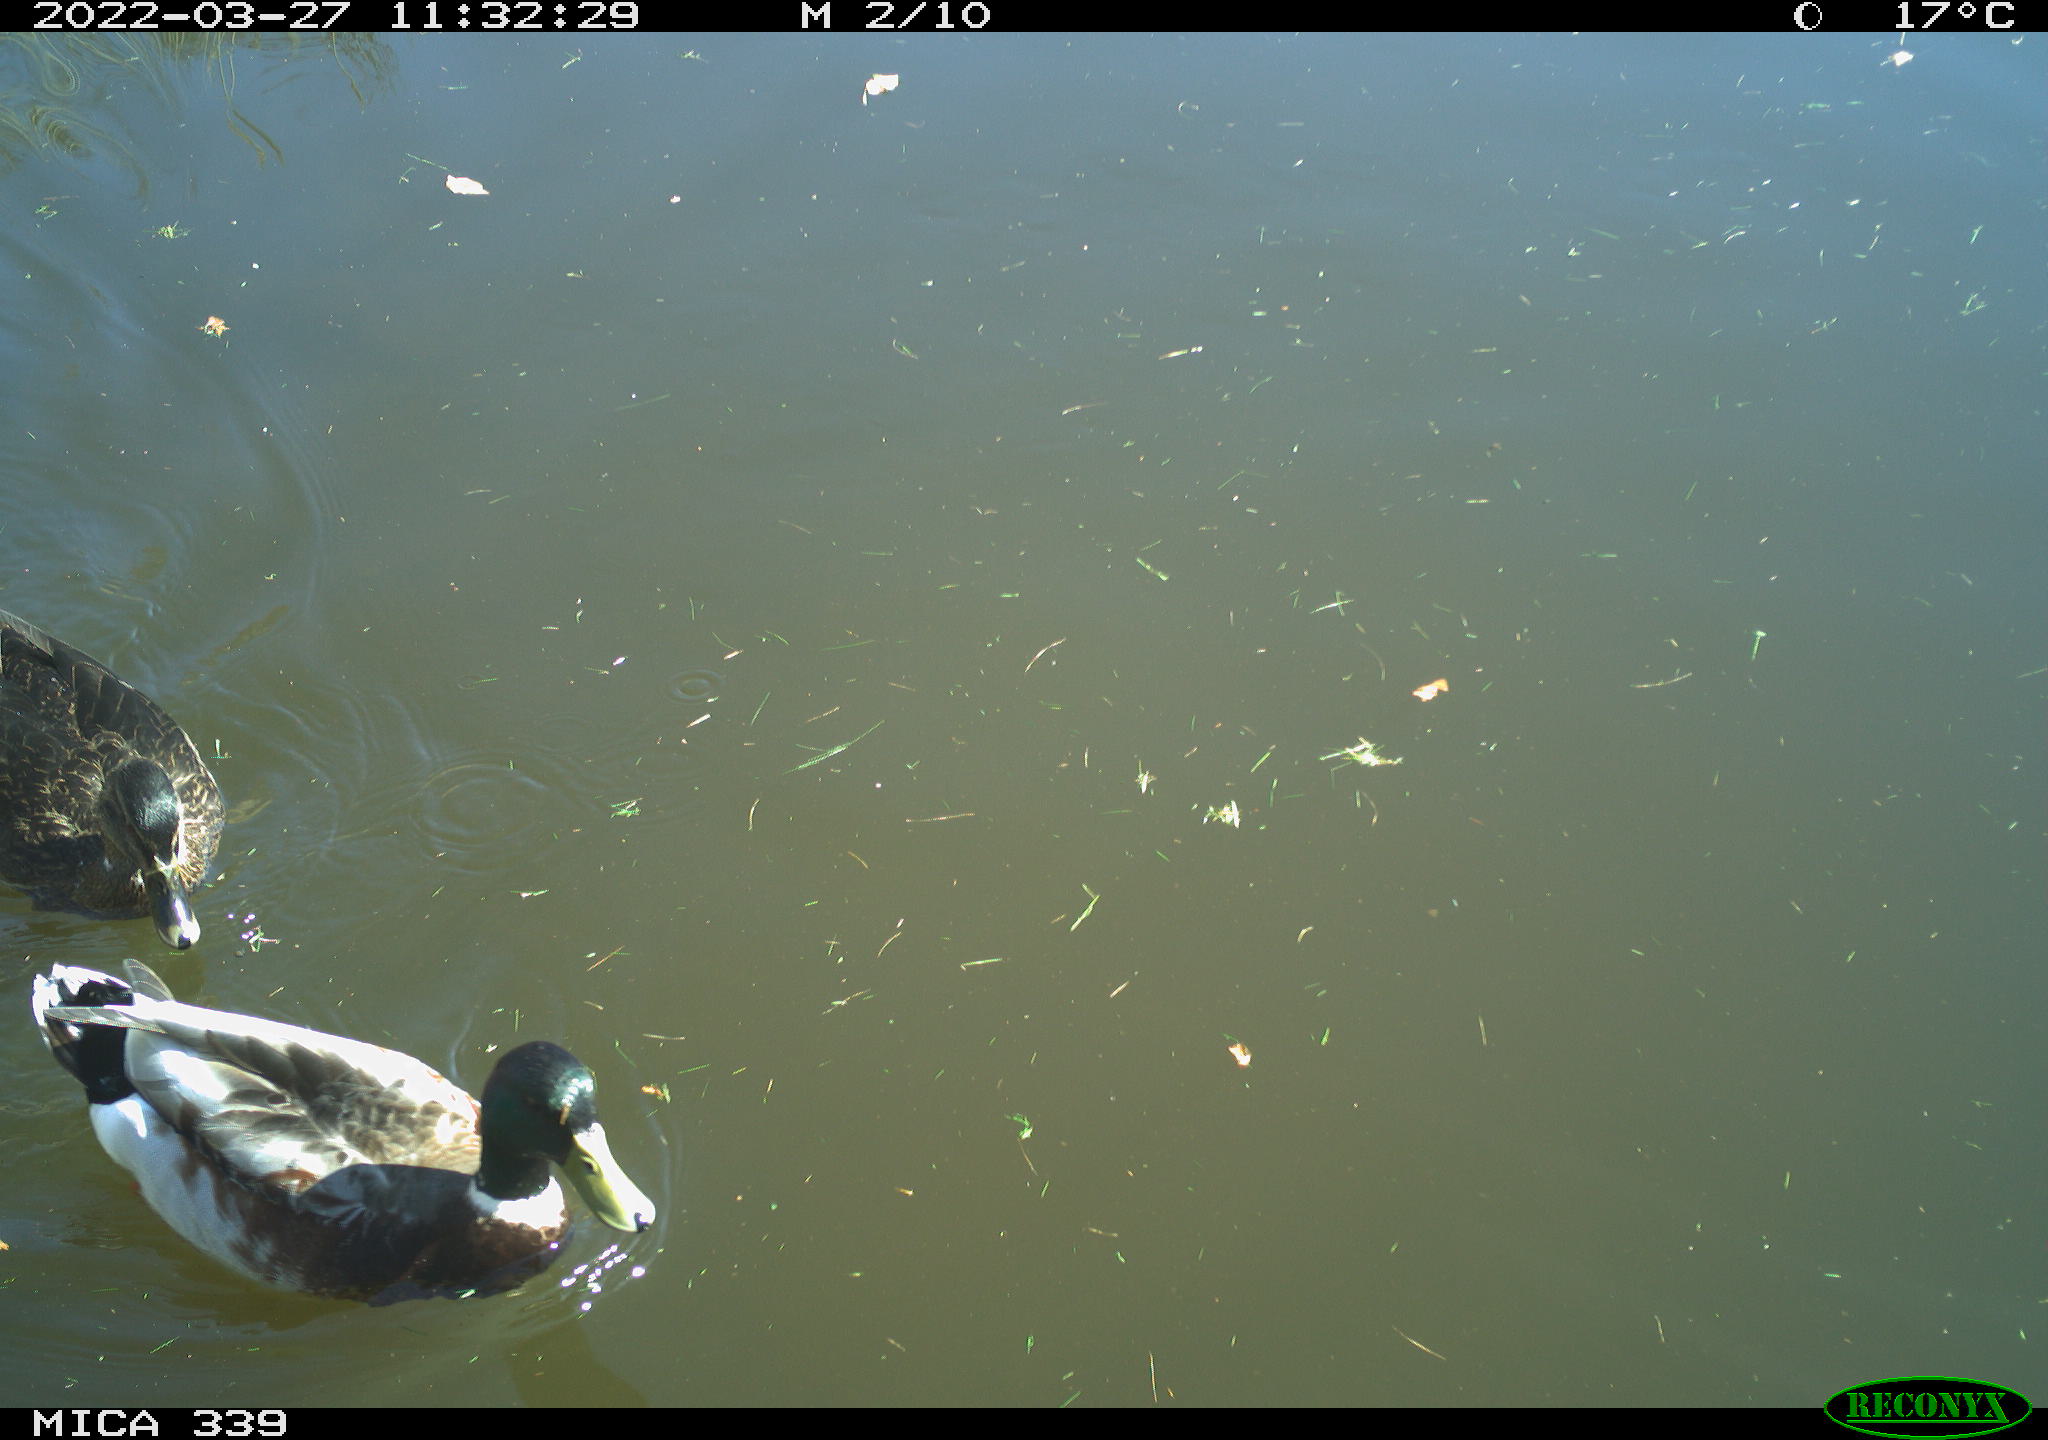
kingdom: Animalia
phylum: Chordata
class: Aves
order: Anseriformes
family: Anatidae
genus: Anas
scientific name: Anas platyrhynchos
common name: Mallard
